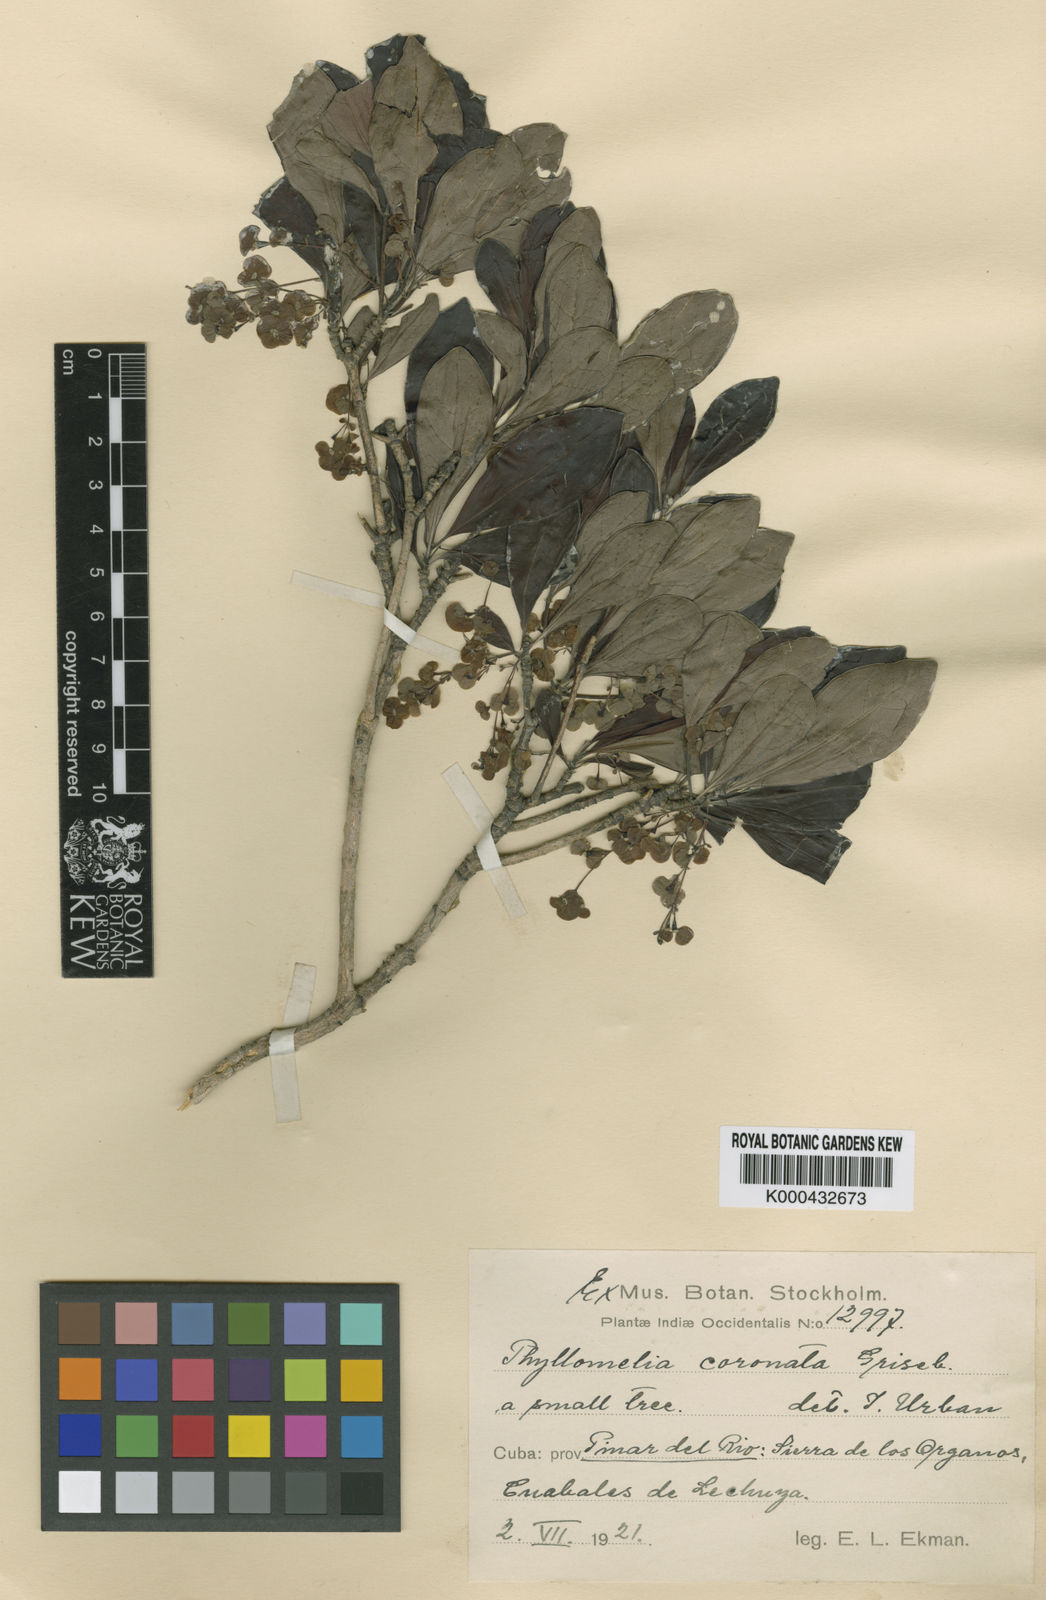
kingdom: Plantae
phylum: Tracheophyta
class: Magnoliopsida
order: Gentianales
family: Rubiaceae
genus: Phyllomelia
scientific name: Phyllomelia coronata
